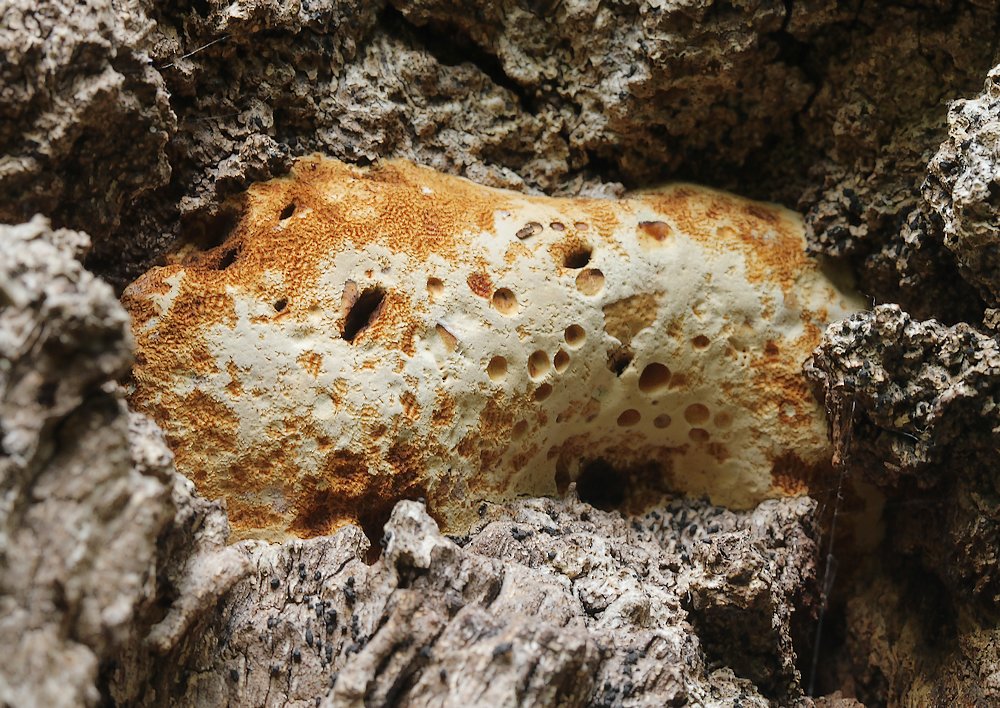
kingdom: Fungi
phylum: Basidiomycota
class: Agaricomycetes
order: Polyporales
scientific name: Polyporales
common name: poresvampordenen
